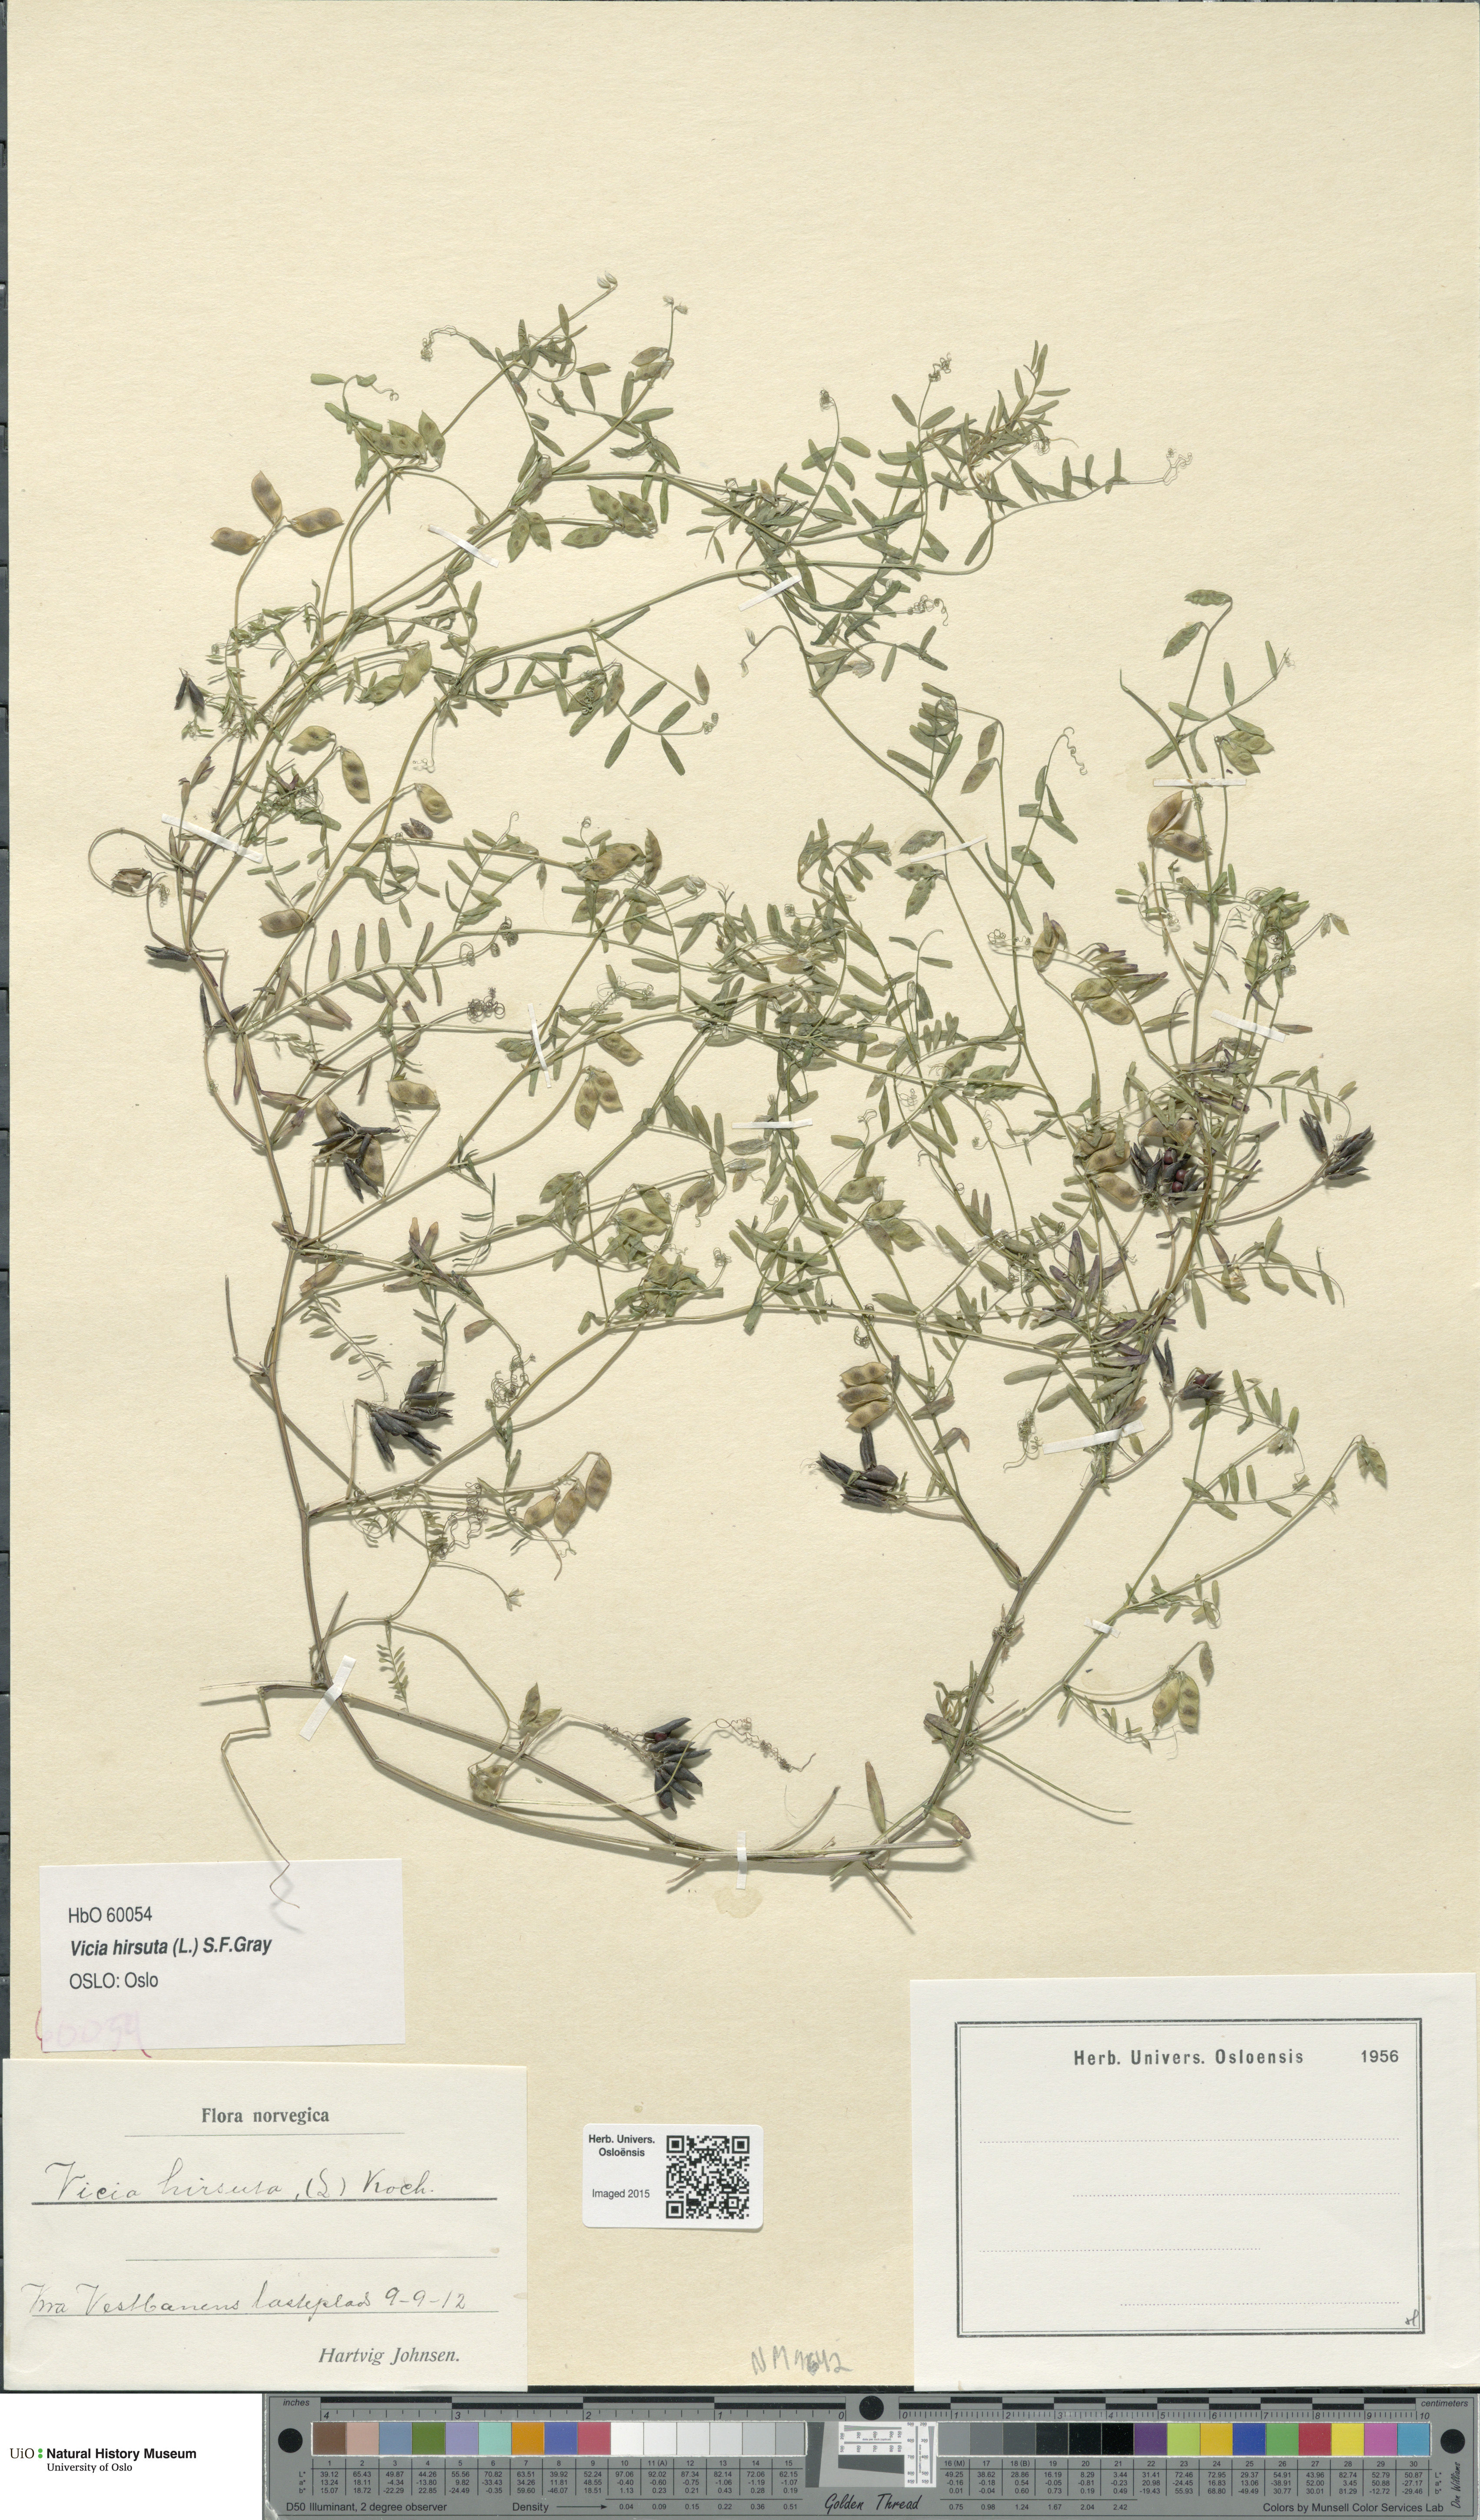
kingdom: Plantae
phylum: Tracheophyta
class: Magnoliopsida
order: Fabales
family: Fabaceae
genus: Vicia
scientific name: Vicia hirsuta
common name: Tiny vetch
